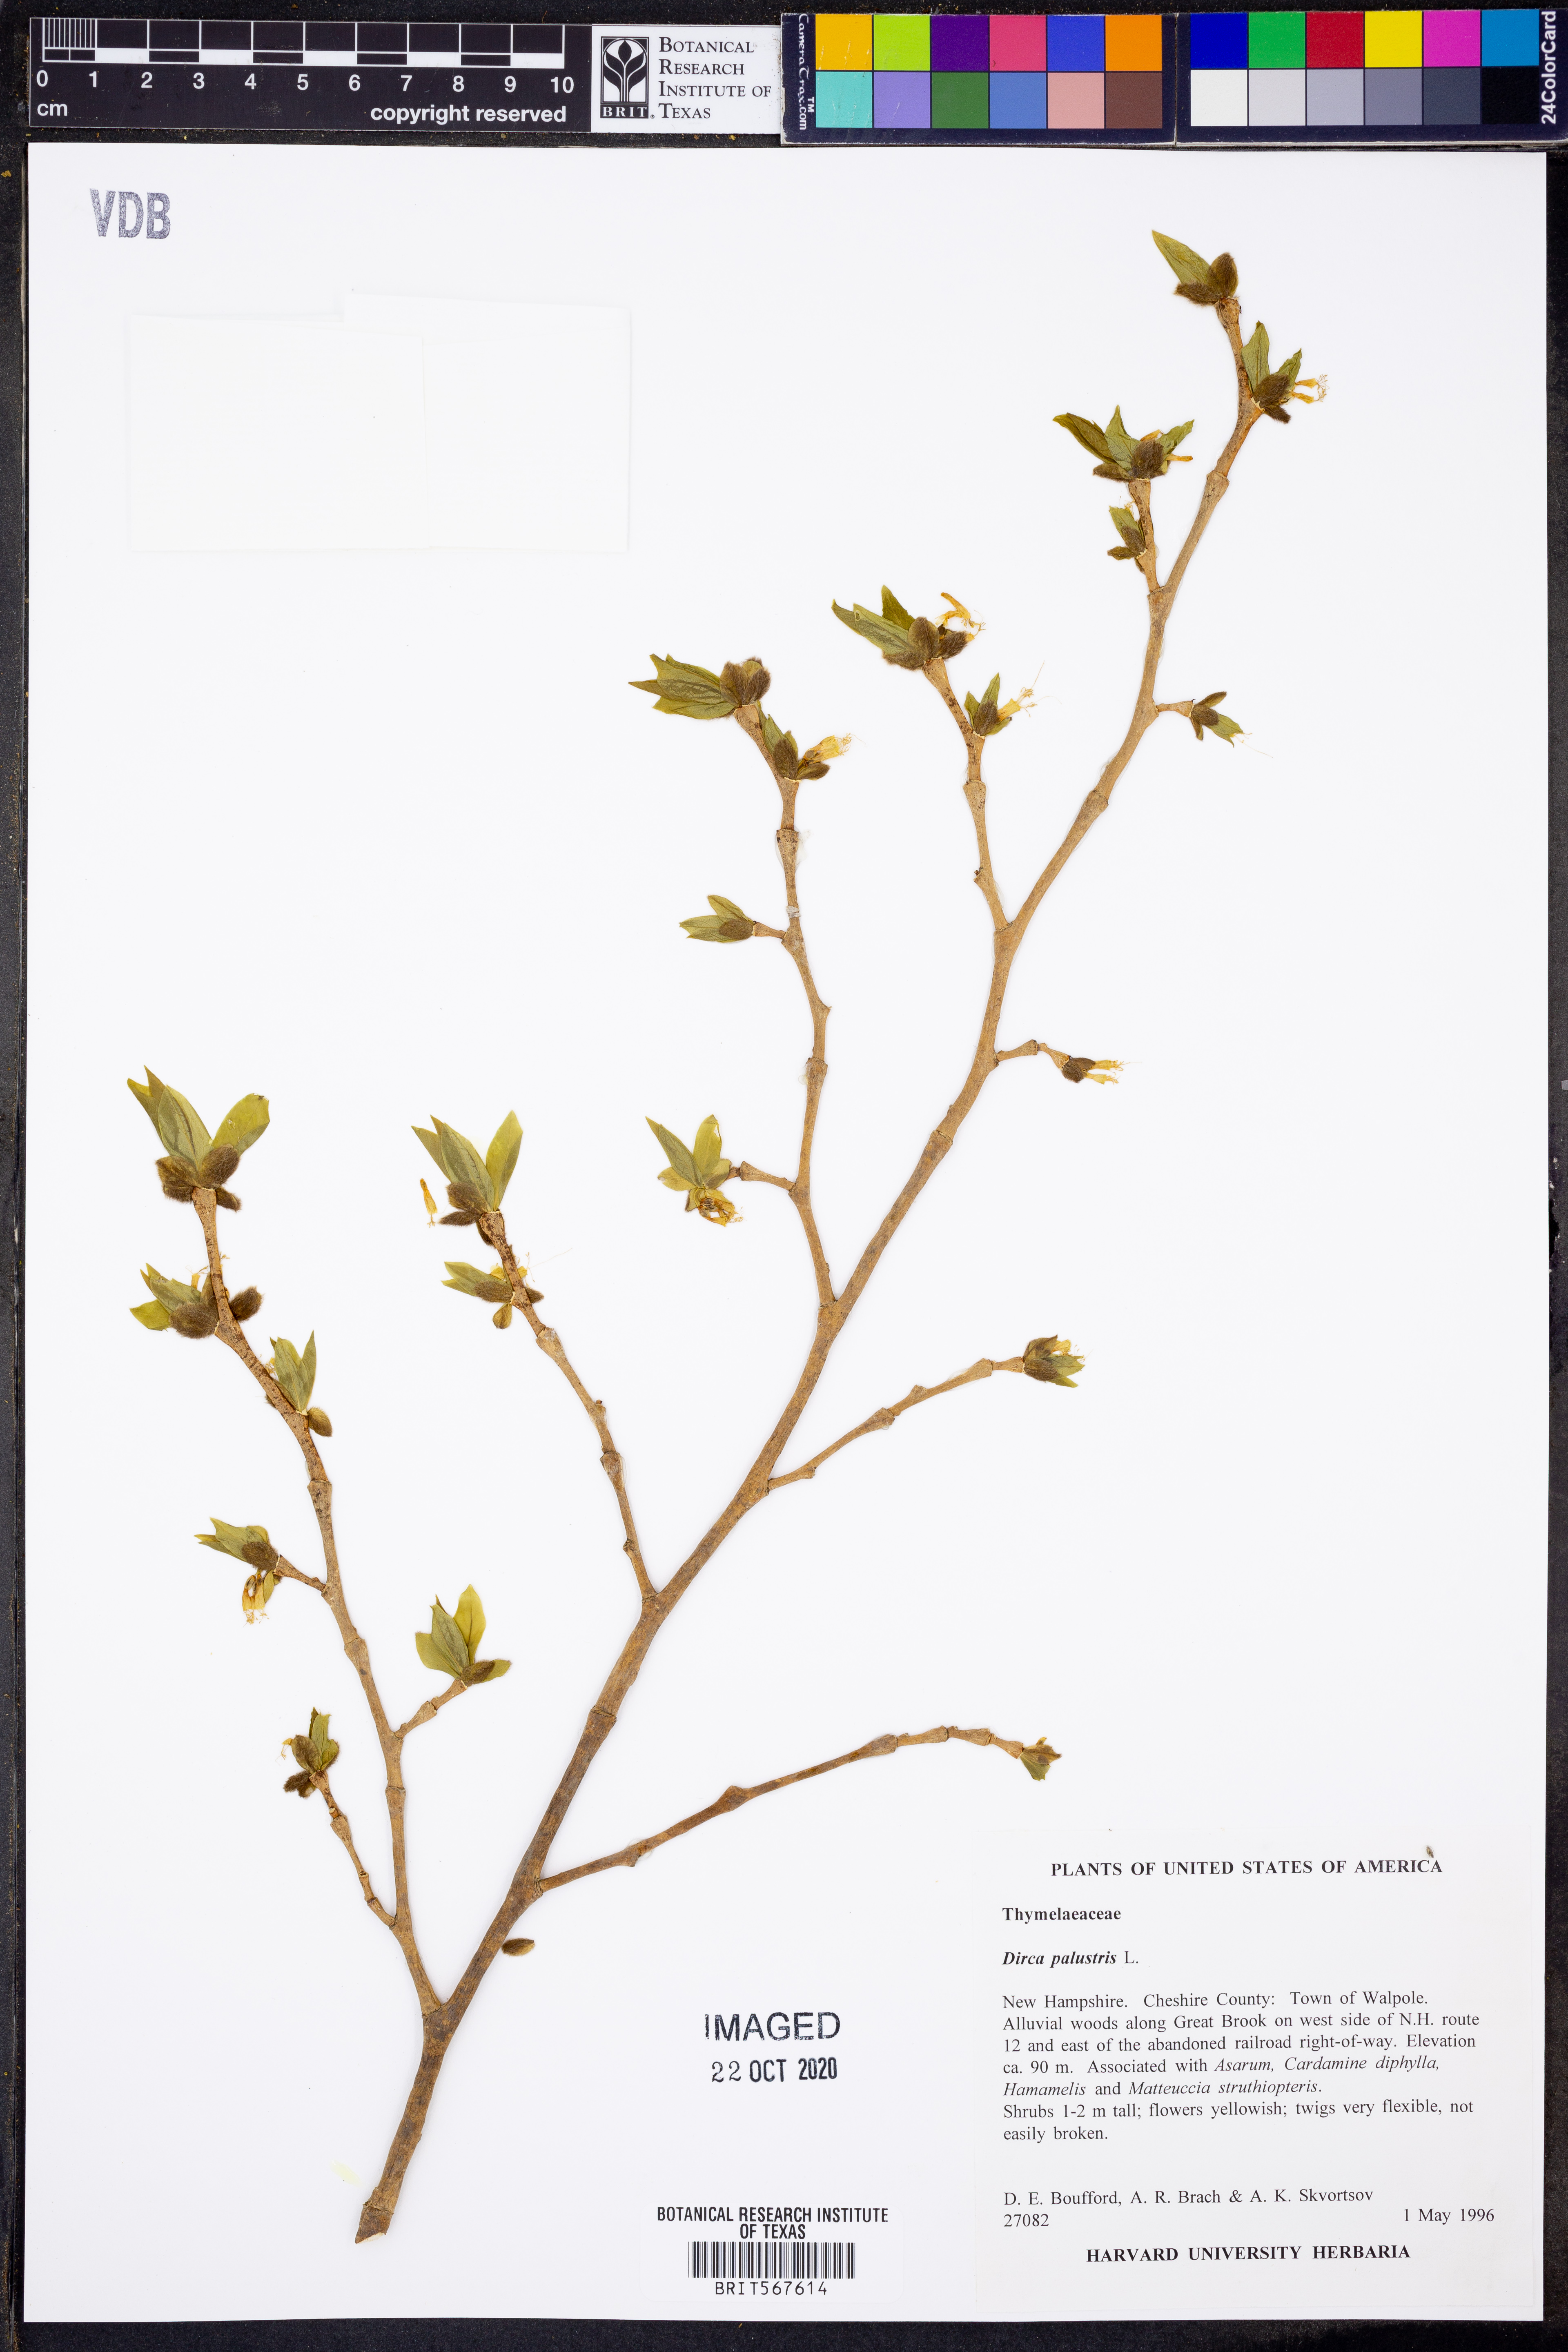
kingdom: Plantae
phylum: Tracheophyta
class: Magnoliopsida
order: Malvales
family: Thymelaeaceae
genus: Dirca
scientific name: Dirca palustris
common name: Leatherwood
